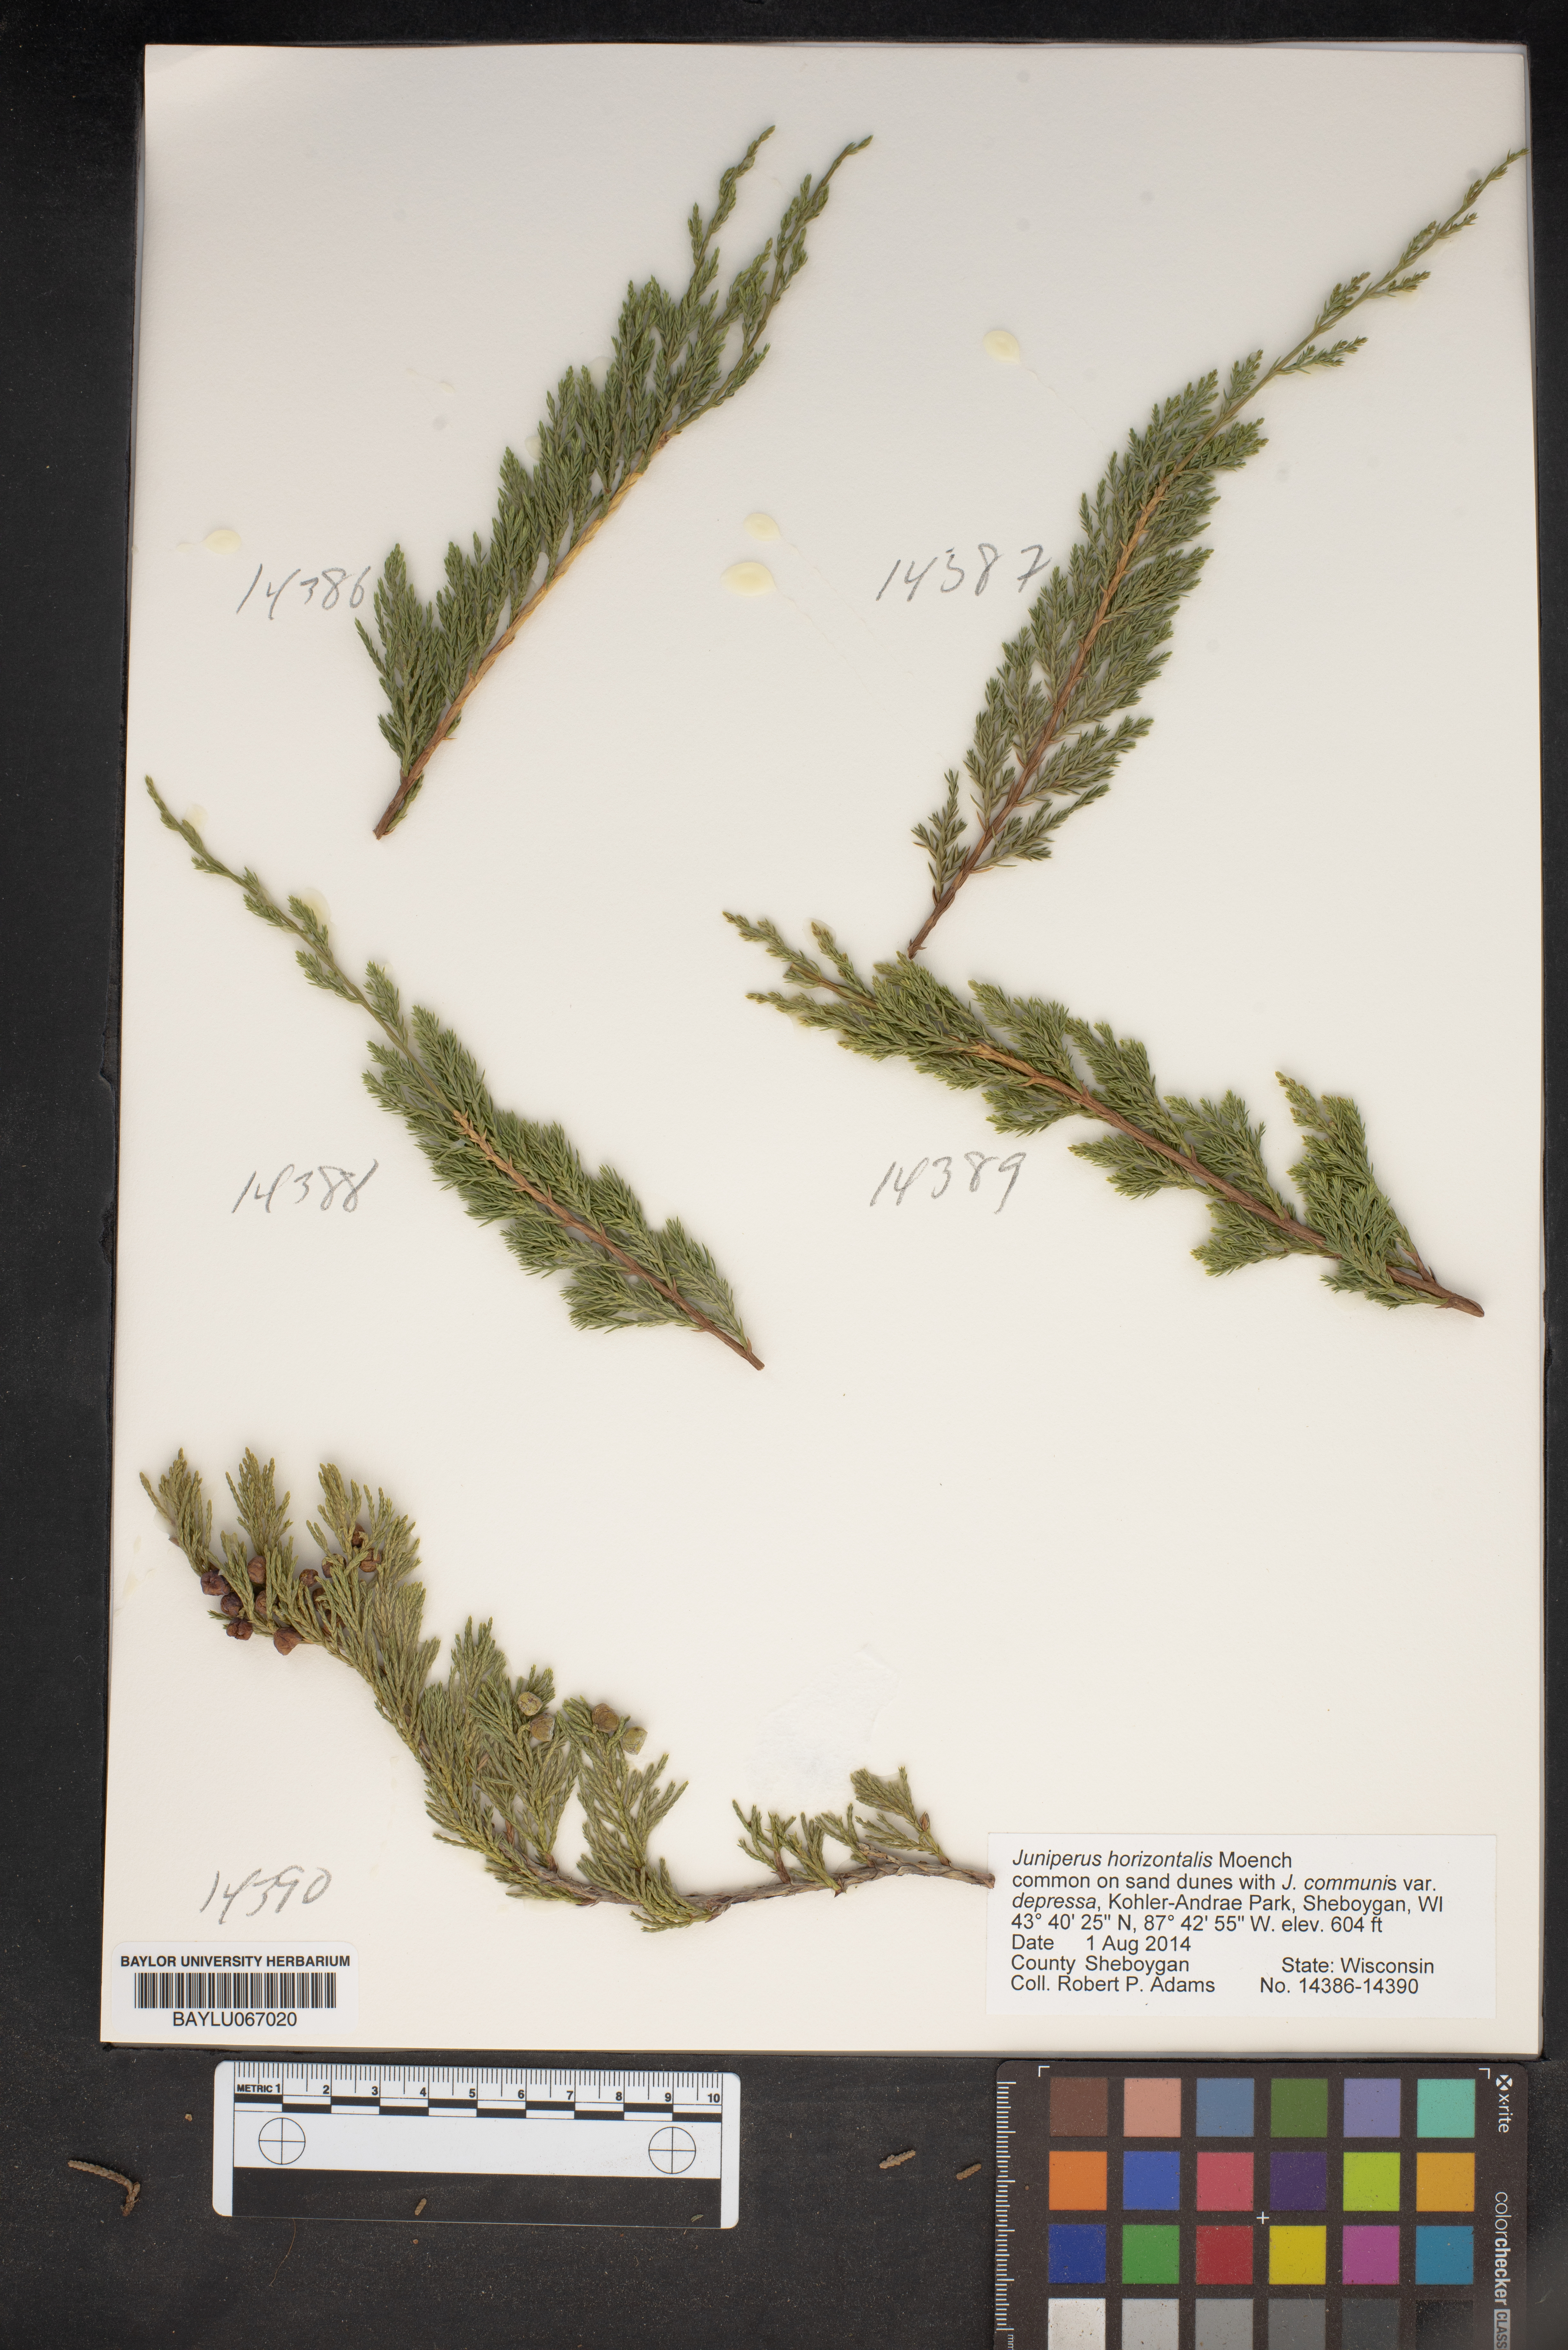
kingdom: Plantae
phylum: Tracheophyta
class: Pinopsida
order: Pinales
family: Cupressaceae
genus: Juniperus
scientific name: Juniperus horizontalis
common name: Creeping juniper
